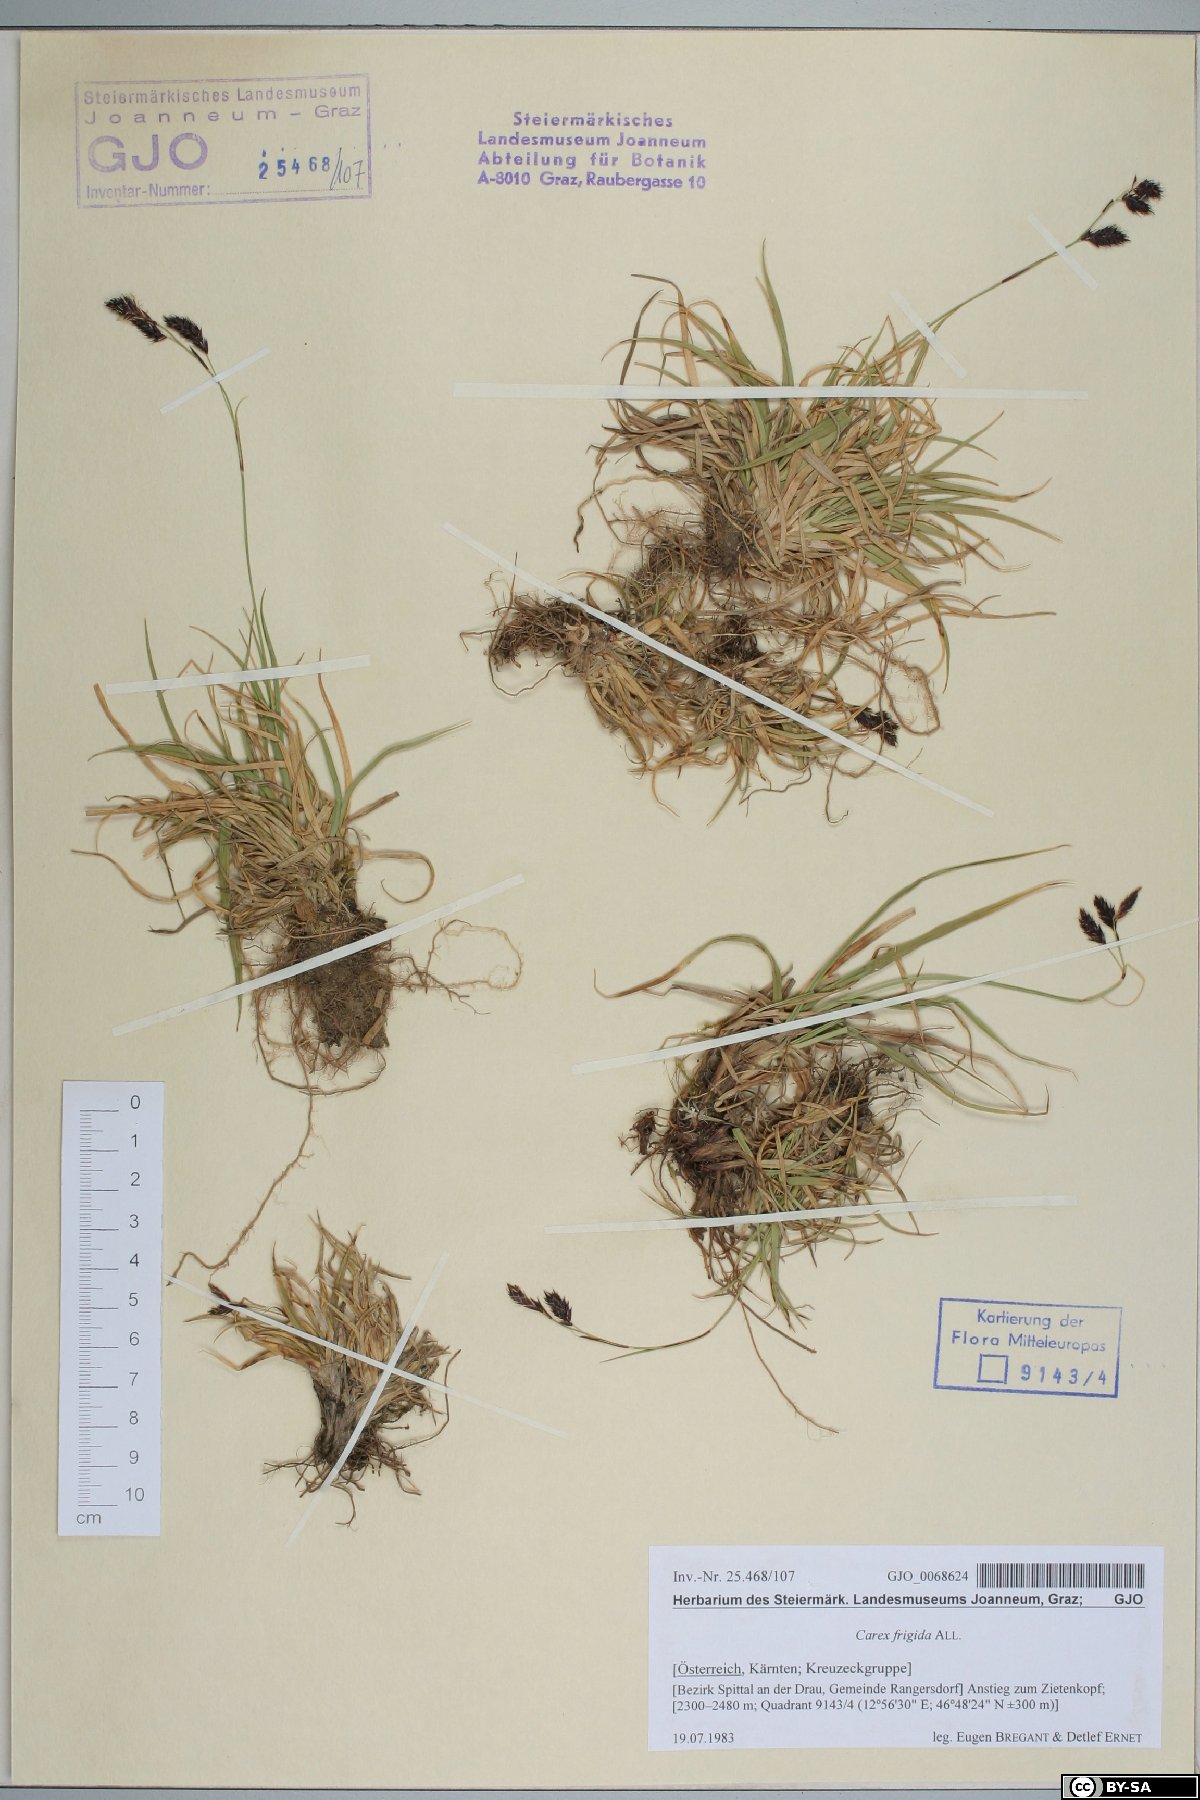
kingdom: Plantae
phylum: Tracheophyta
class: Liliopsida
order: Poales
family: Cyperaceae
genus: Carex
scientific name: Carex frigida
